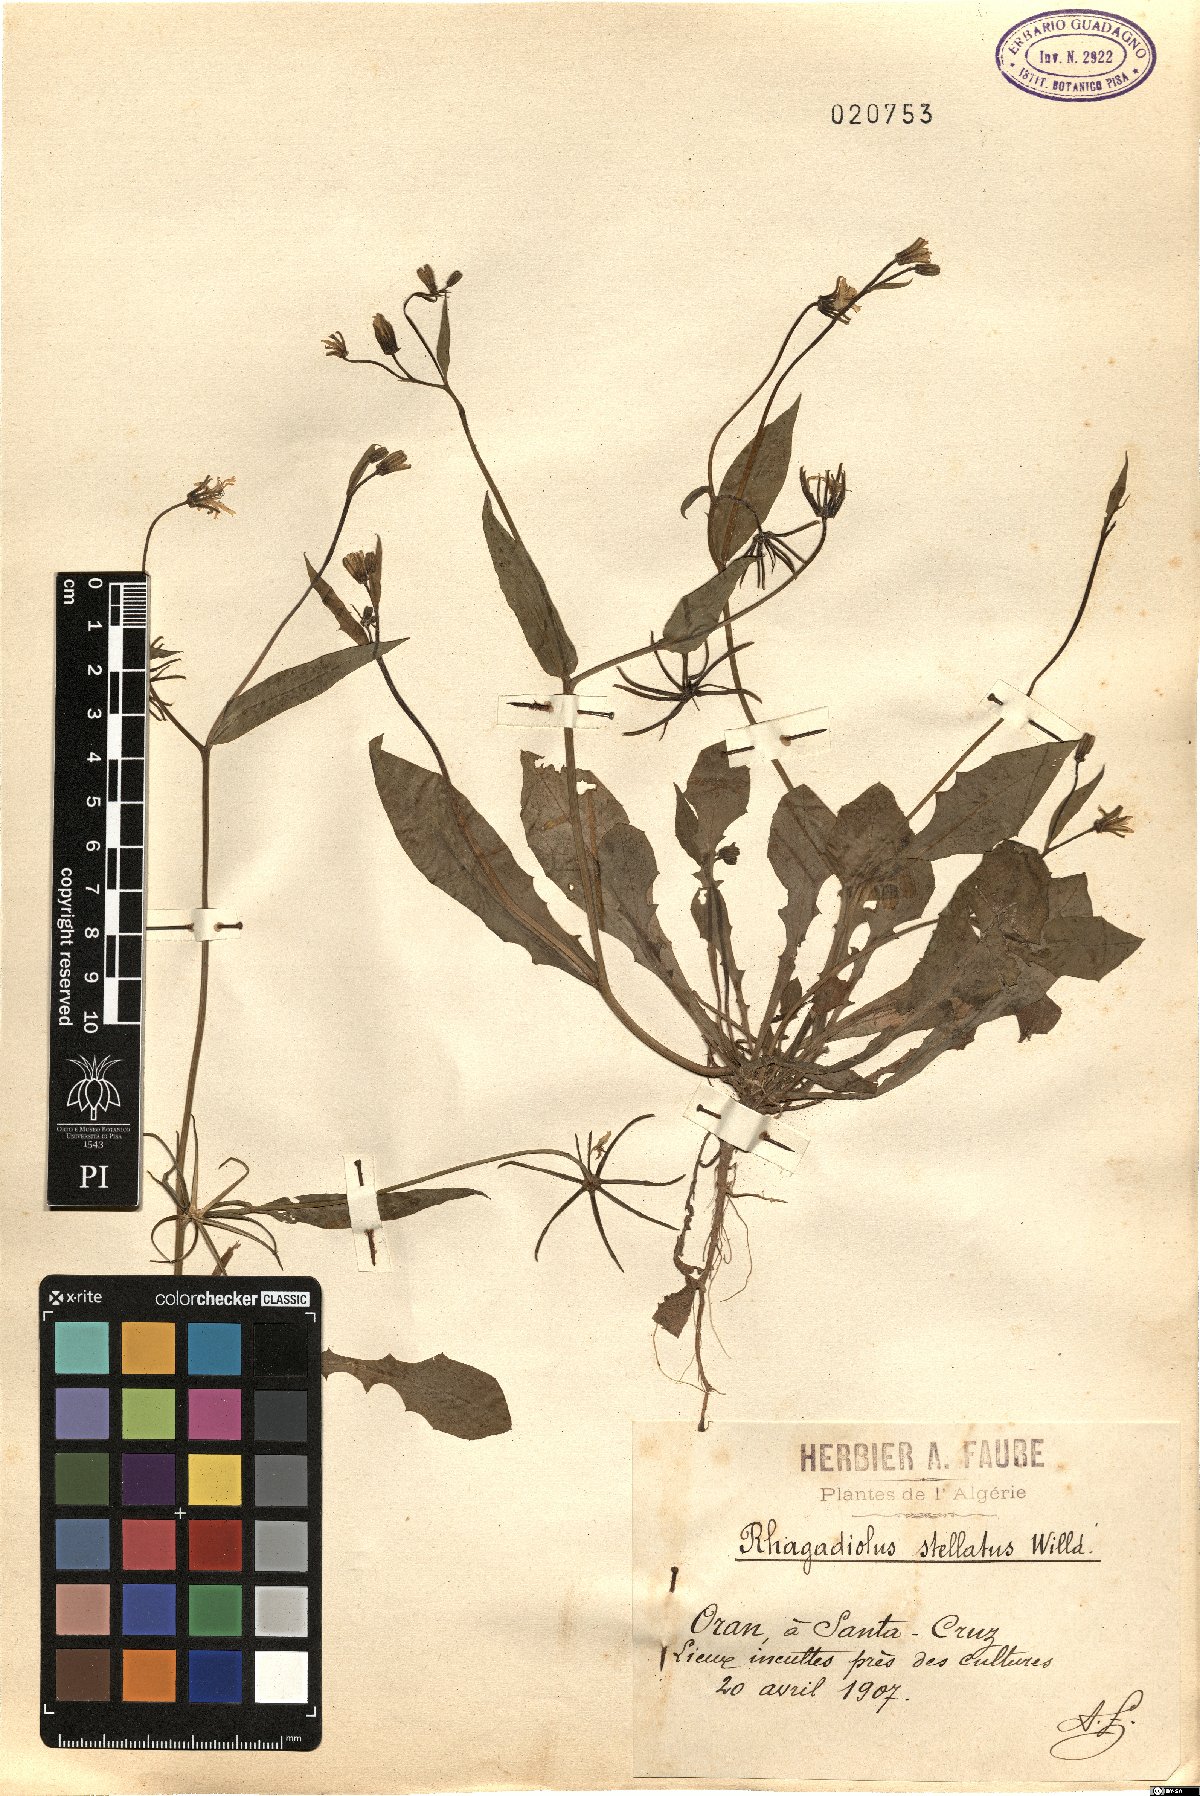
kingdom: Plantae
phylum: Tracheophyta
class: Magnoliopsida
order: Asterales
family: Asteraceae
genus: Rhagadiolus
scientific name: Rhagadiolus stellatus
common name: Star hawkbit
